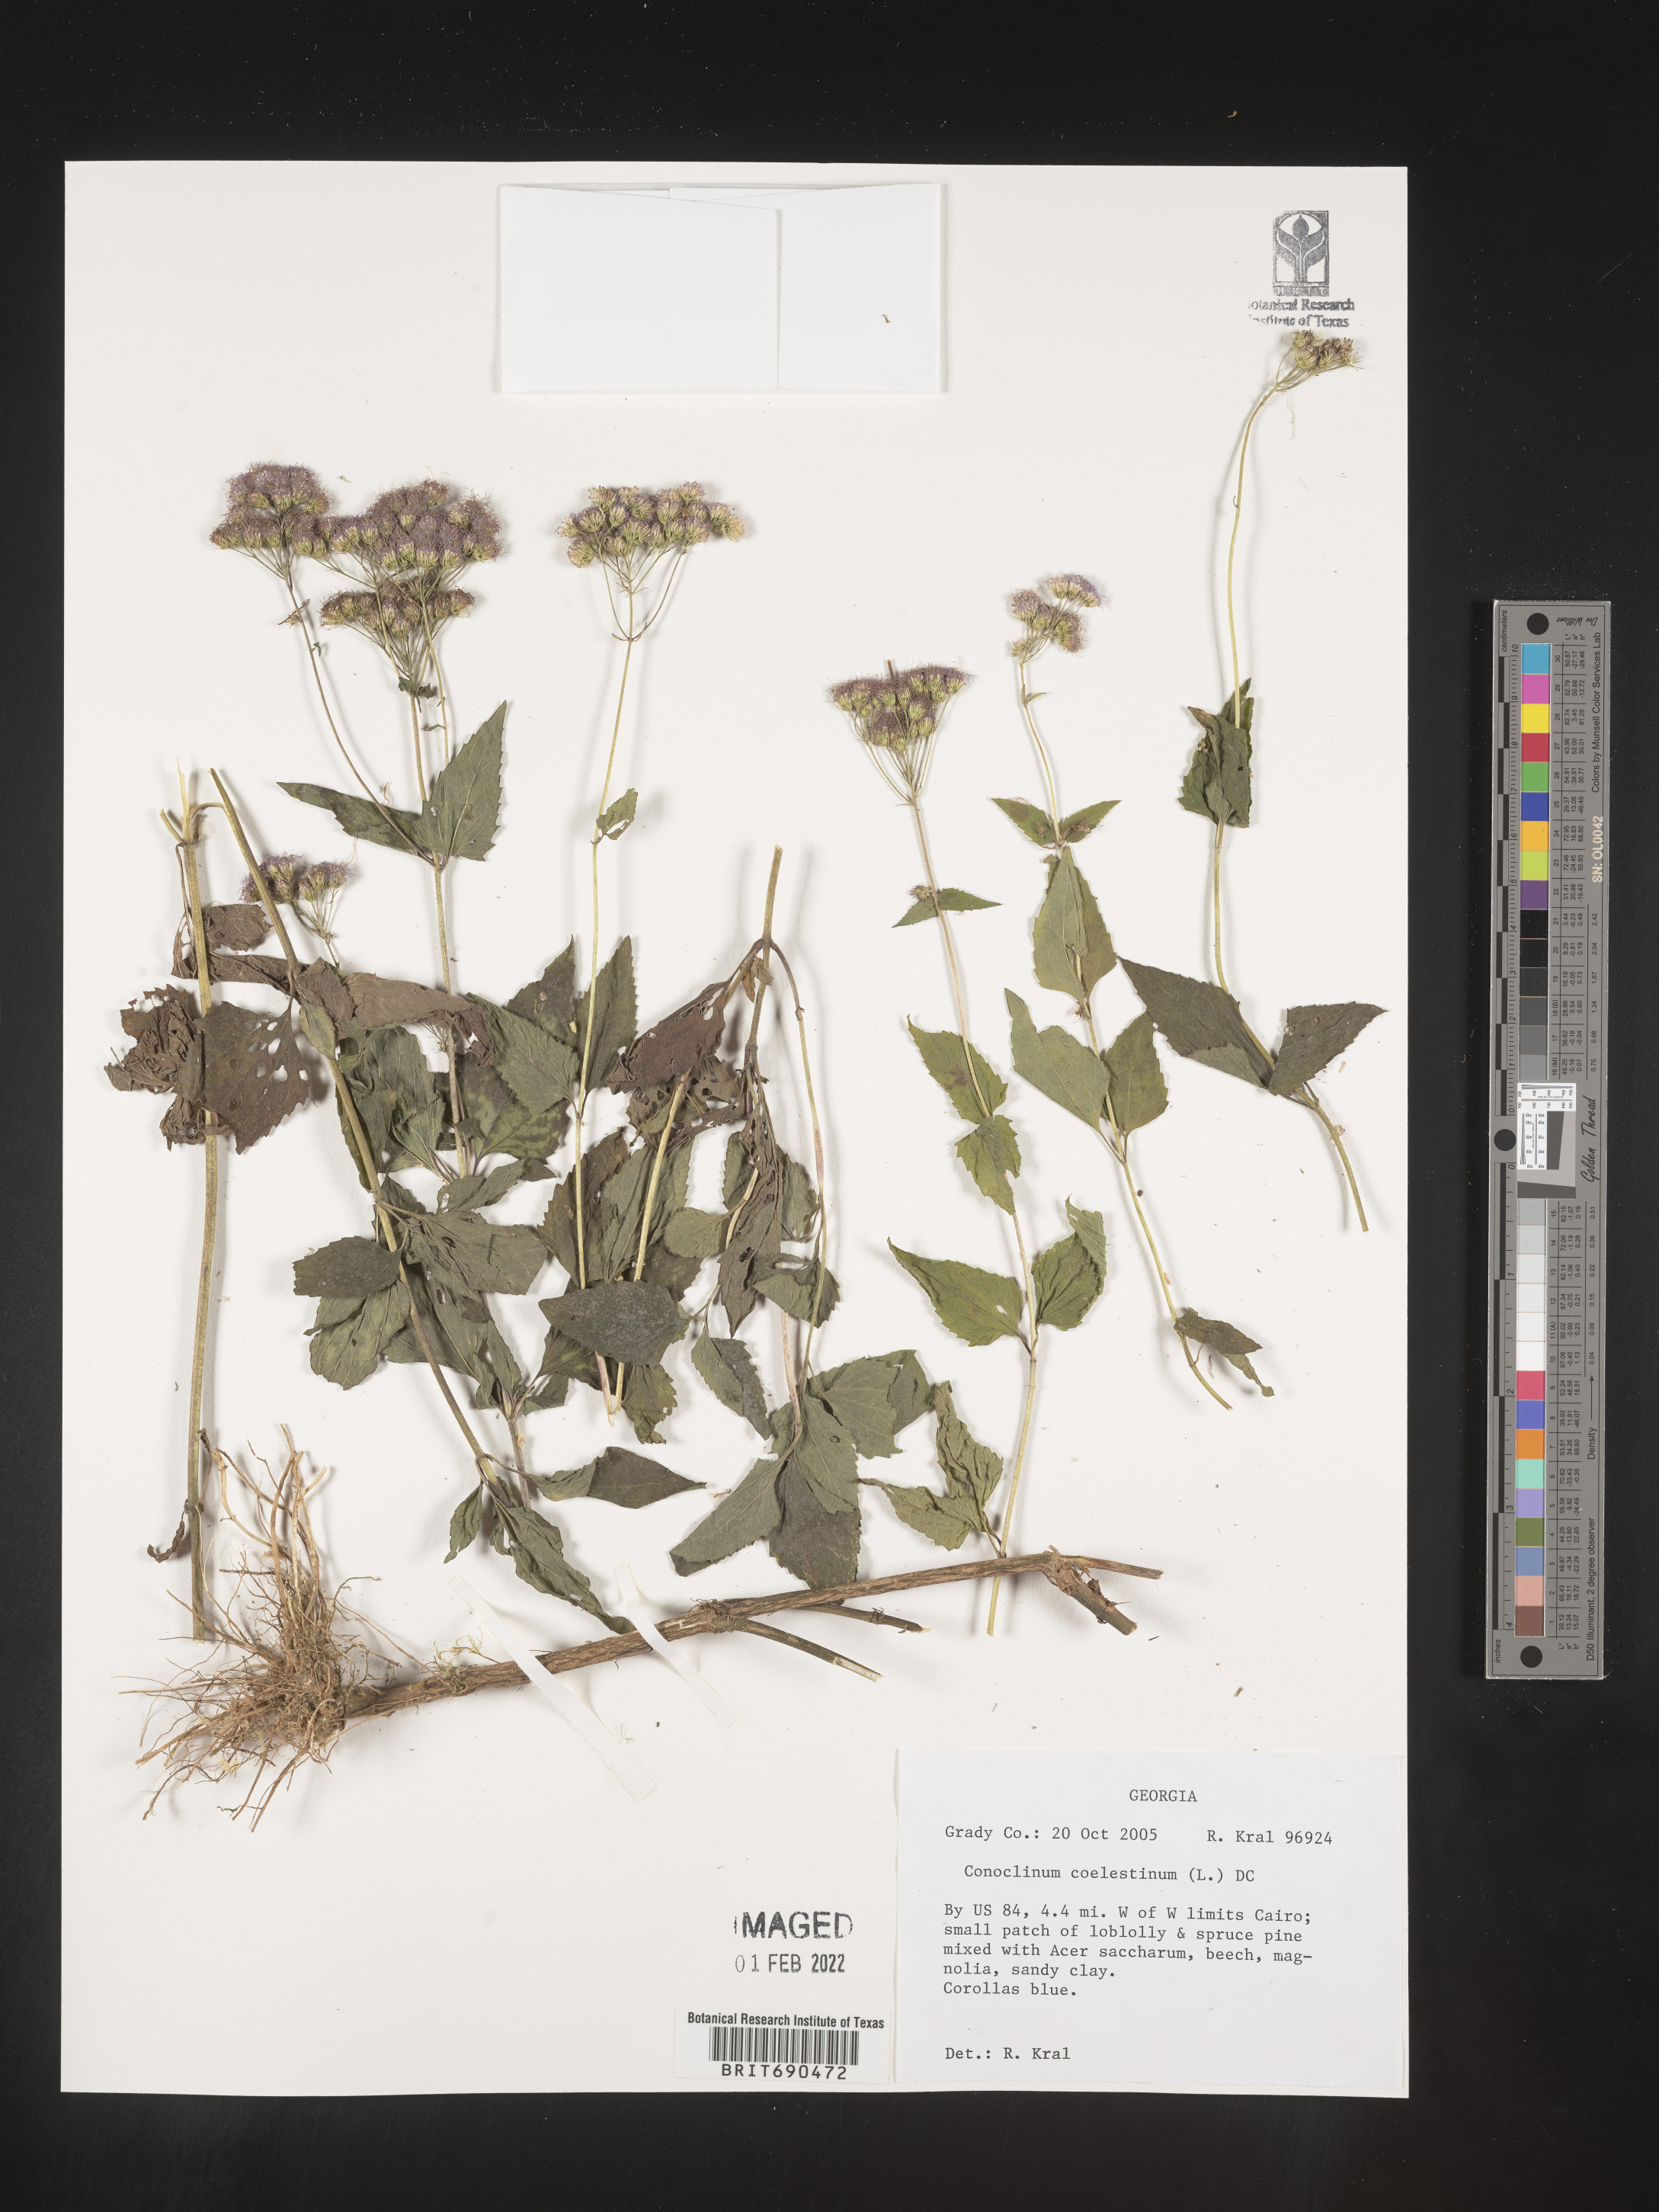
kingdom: Plantae
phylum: Tracheophyta
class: Magnoliopsida
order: Asterales
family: Asteraceae
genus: Conoclinium
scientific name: Conoclinium coelestinum
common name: Blue mistflower
